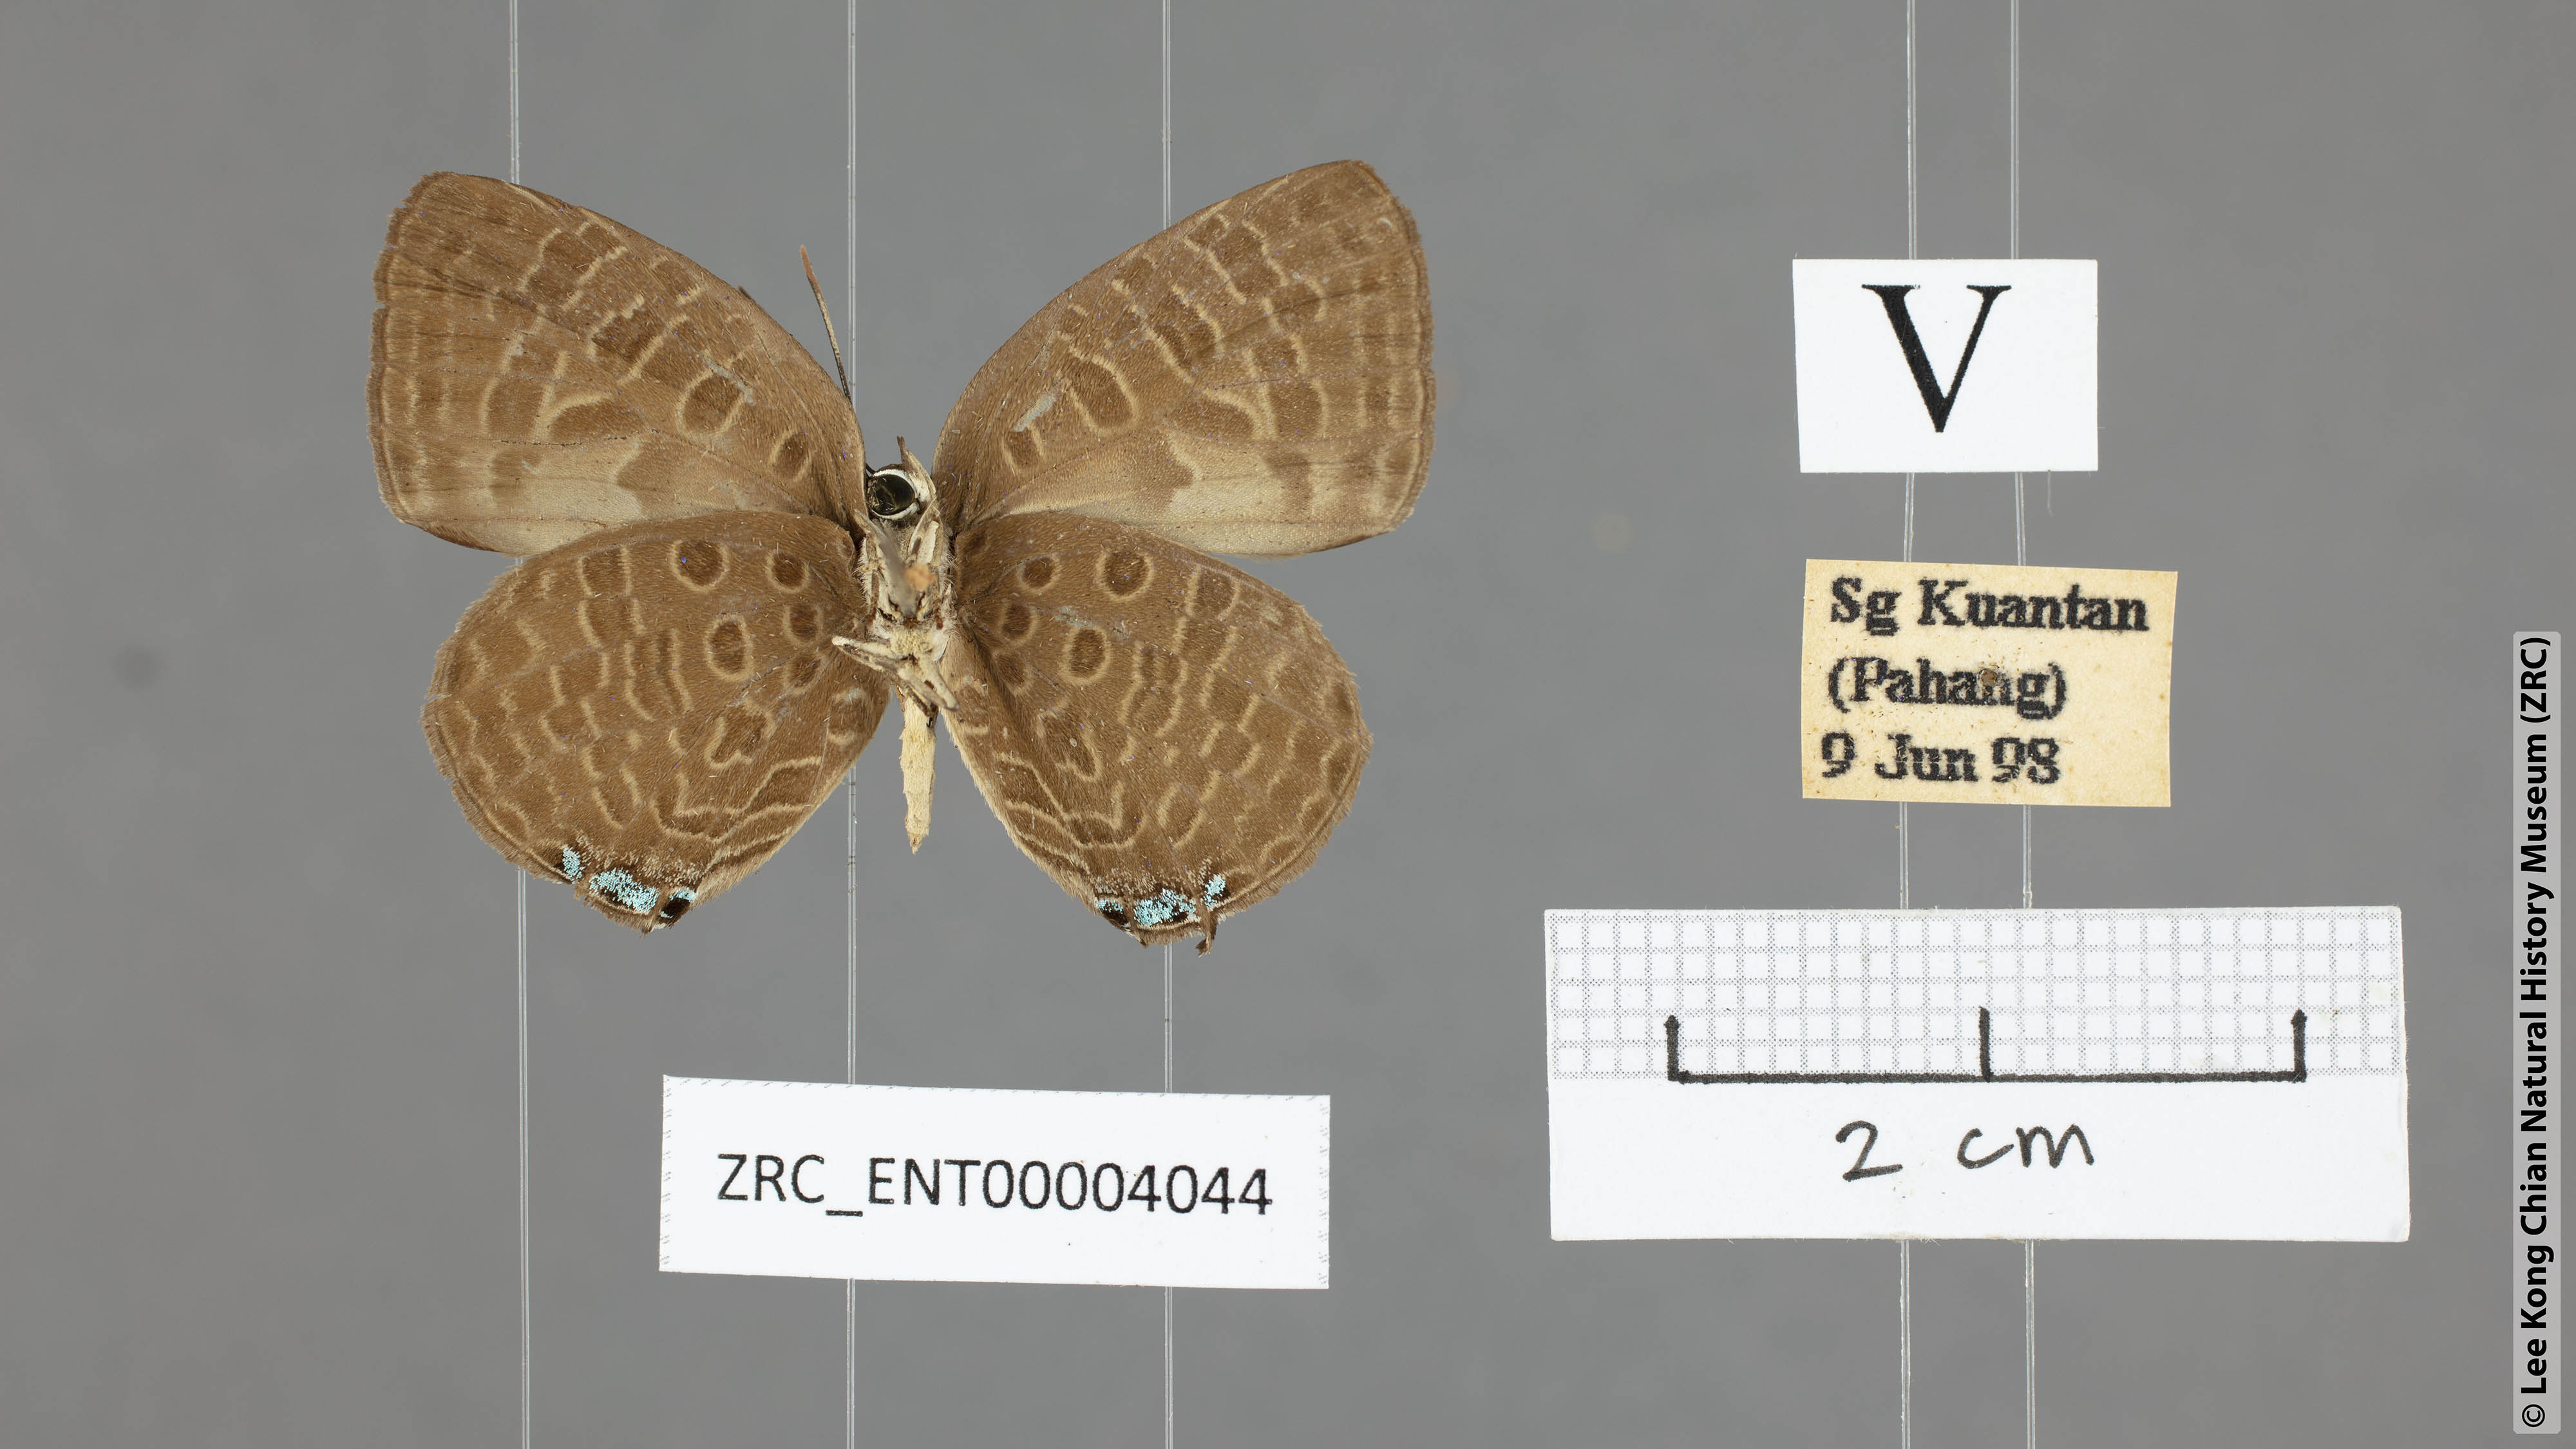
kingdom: Animalia
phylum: Arthropoda
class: Insecta
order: Lepidoptera
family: Lycaenidae
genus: Arhopala
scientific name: Arhopala pseudomuta
